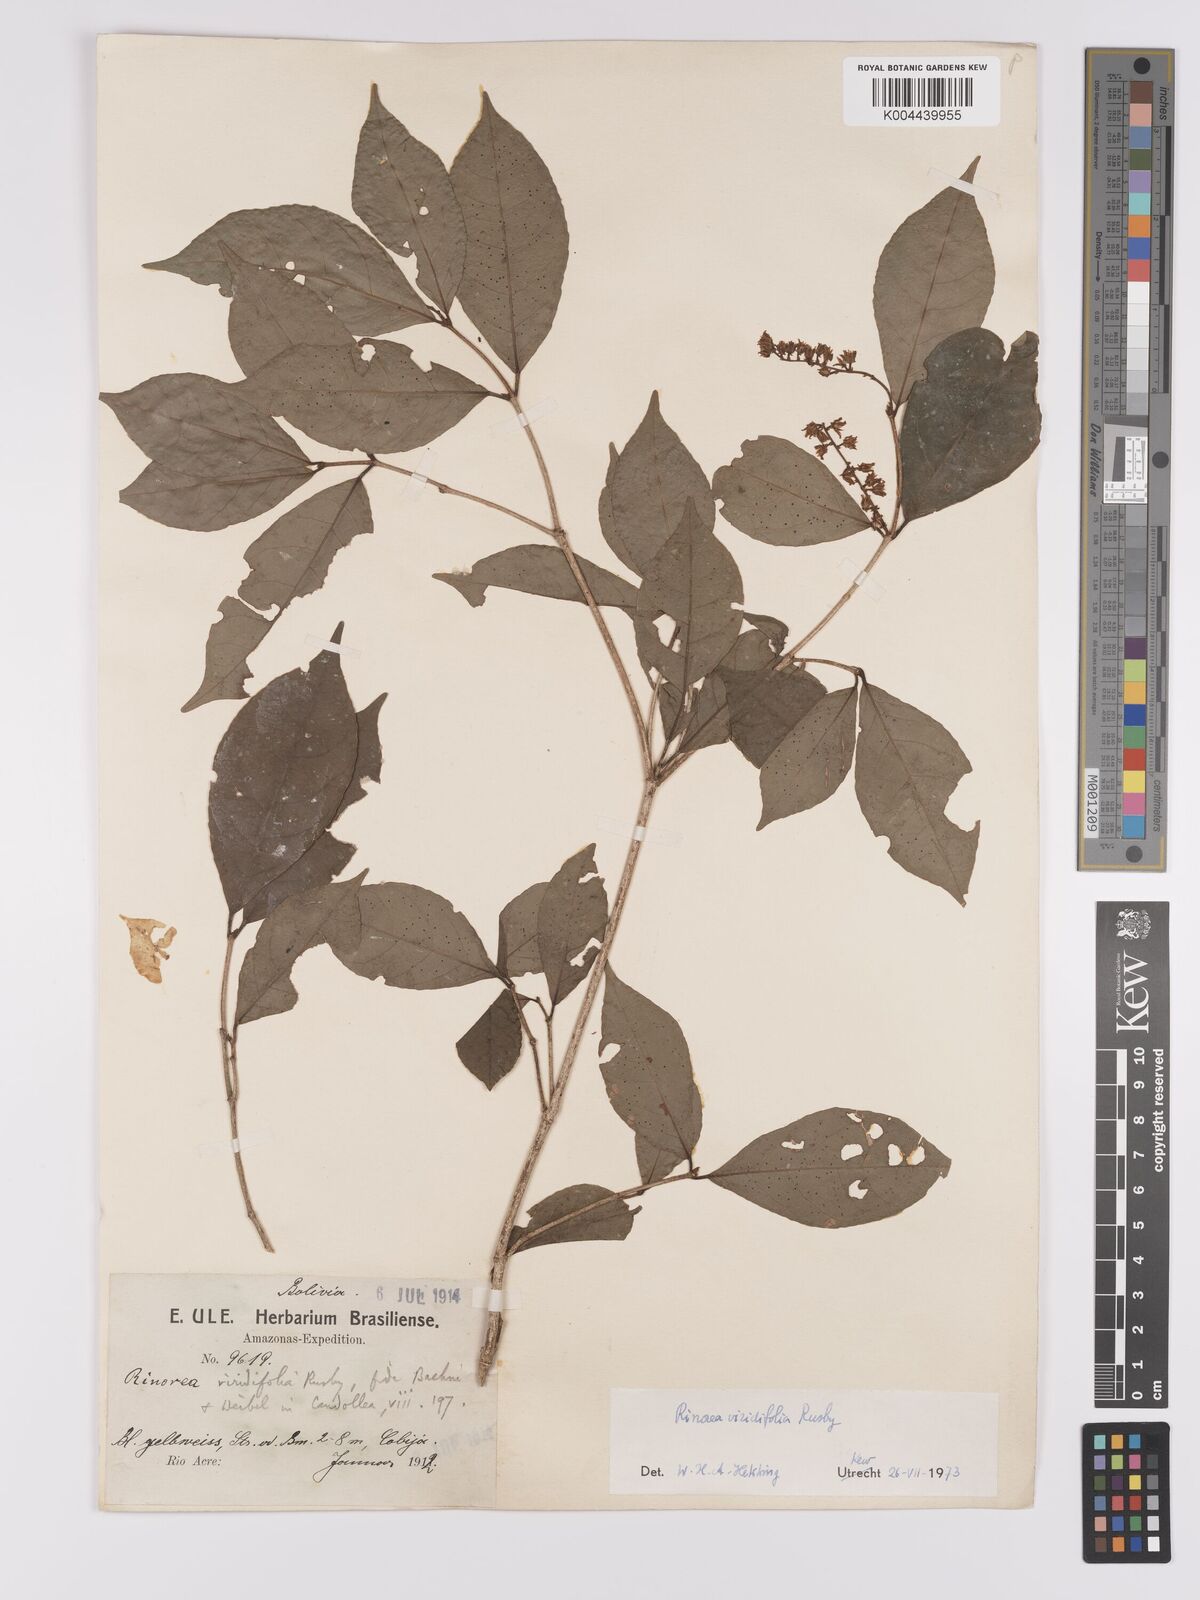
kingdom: Plantae
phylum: Tracheophyta
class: Magnoliopsida
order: Malpighiales
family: Violaceae
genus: Rinorea
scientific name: Rinorea viridifolia
